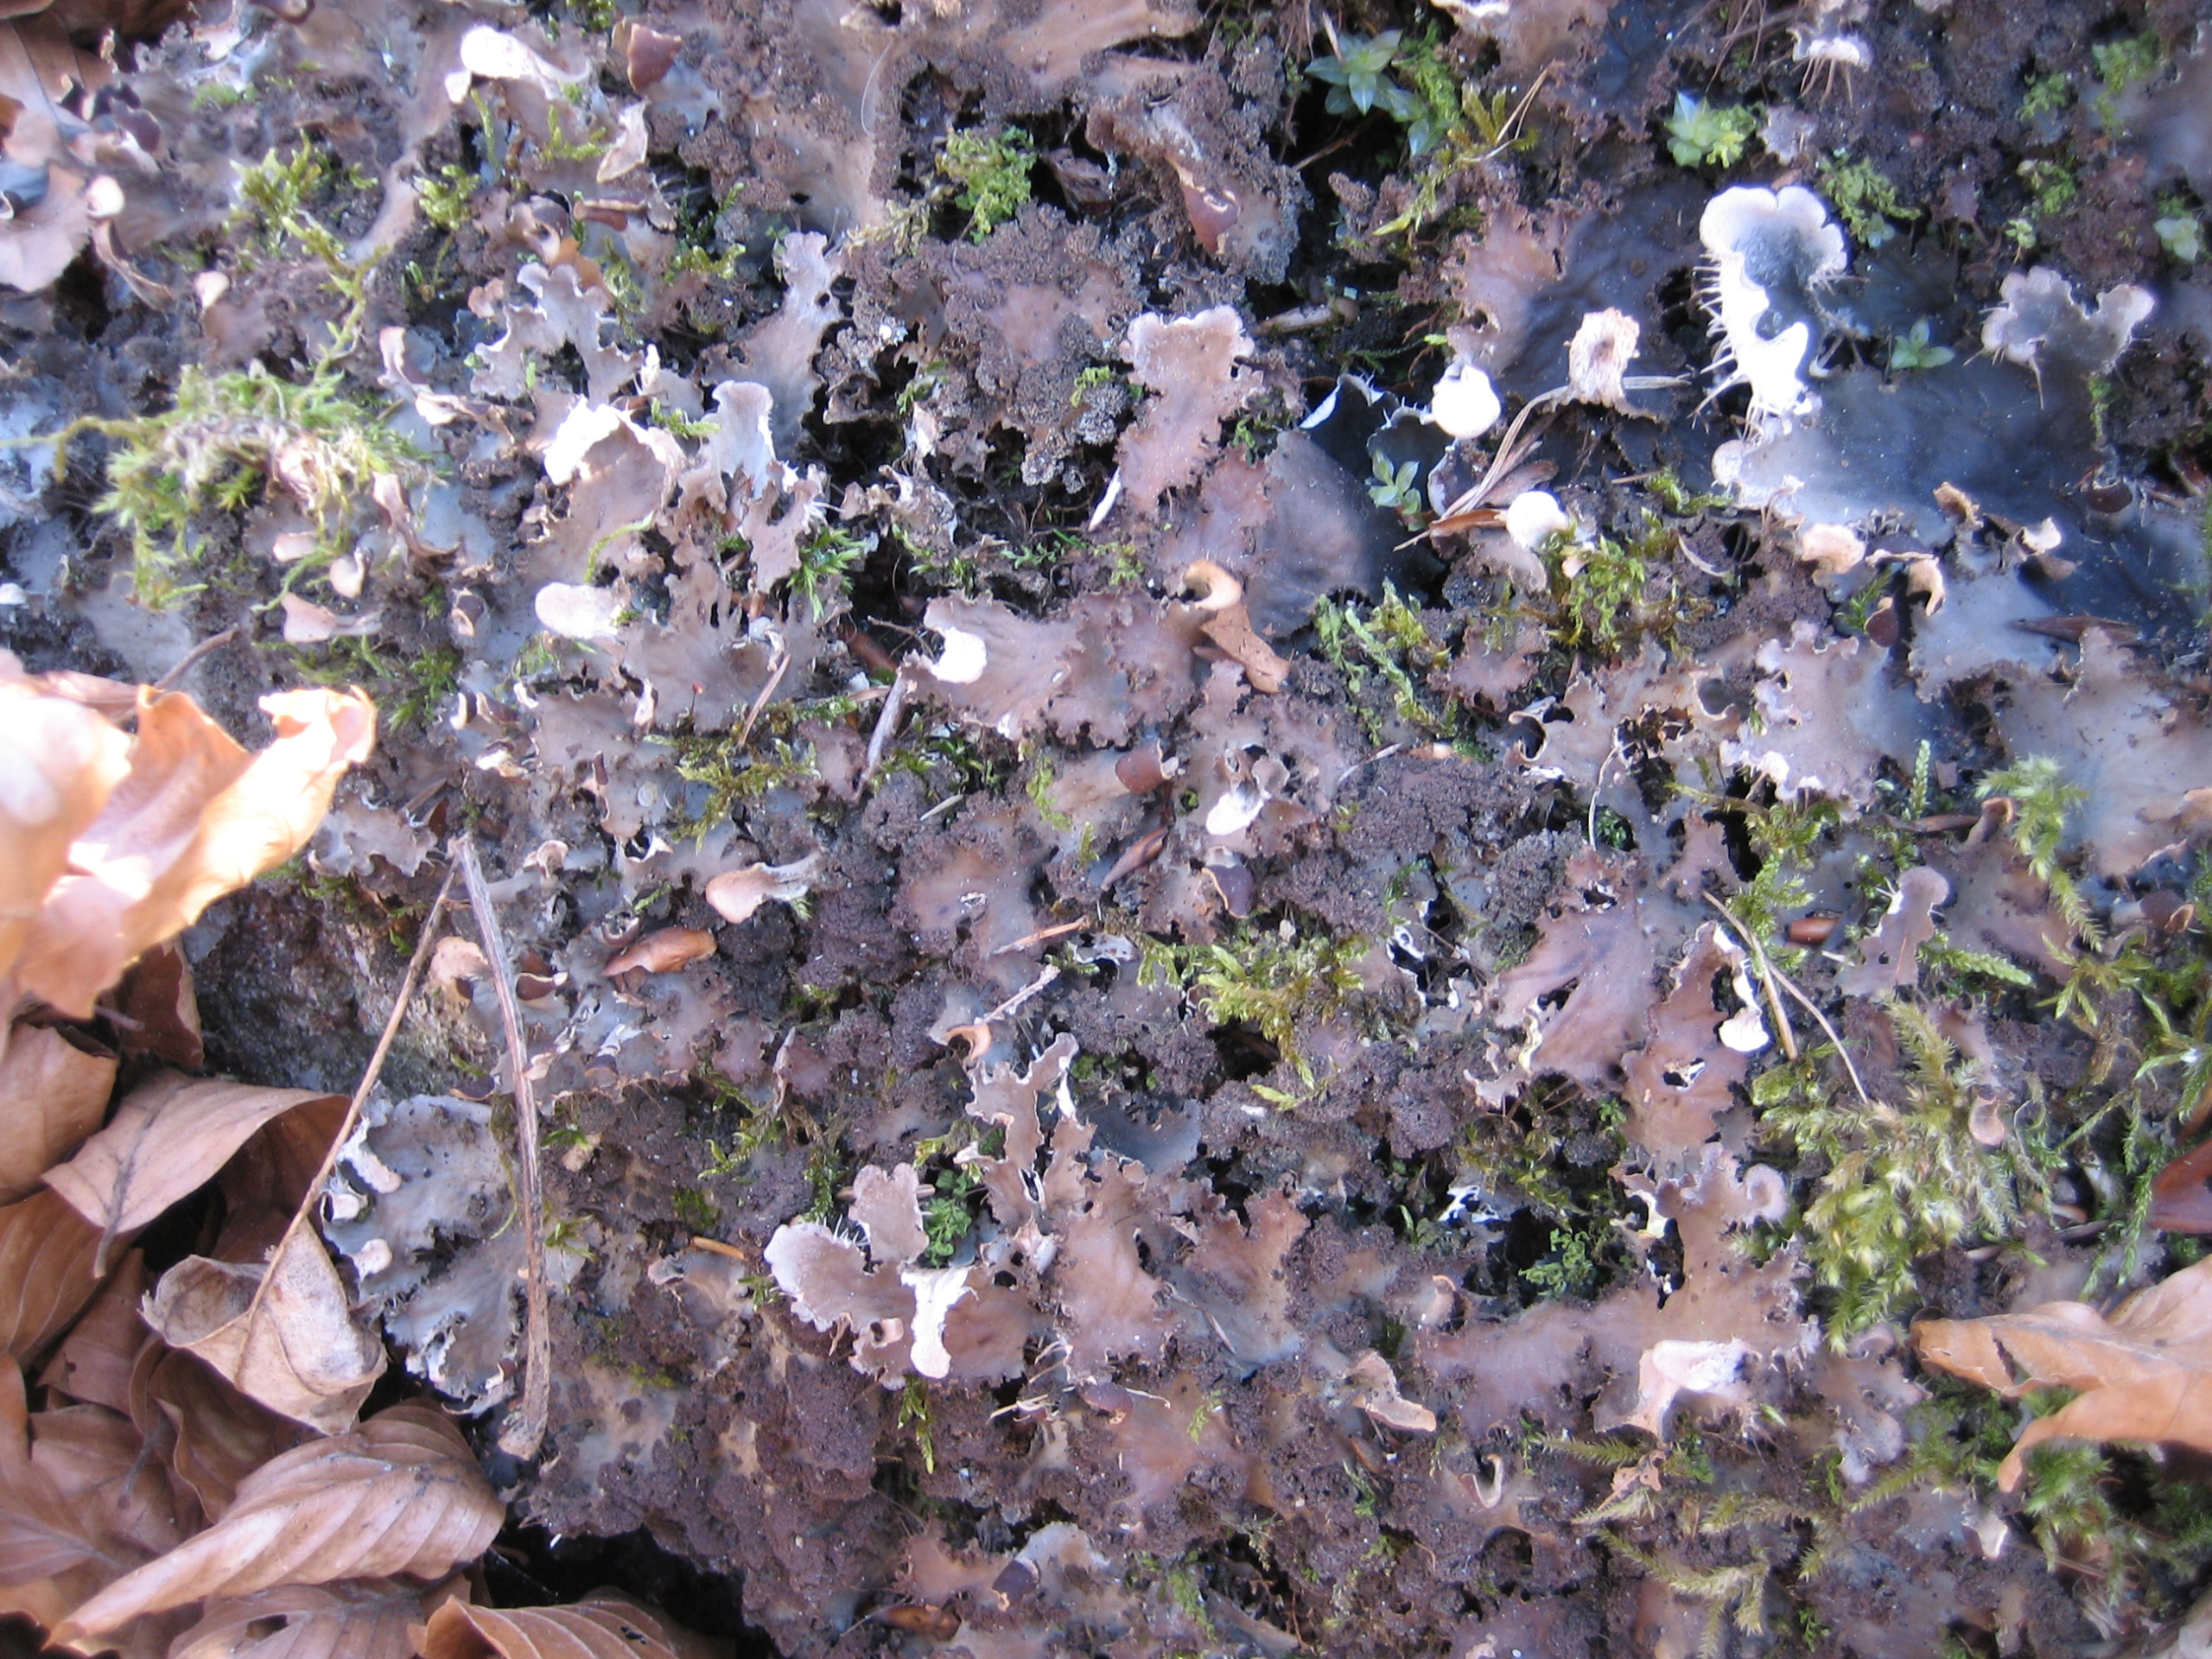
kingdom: Fungi
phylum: Ascomycota
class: Lecanoromycetes
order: Peltigerales
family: Peltigeraceae
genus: Peltigera
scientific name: Peltigera praetextata
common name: Kruset skjoldlav
